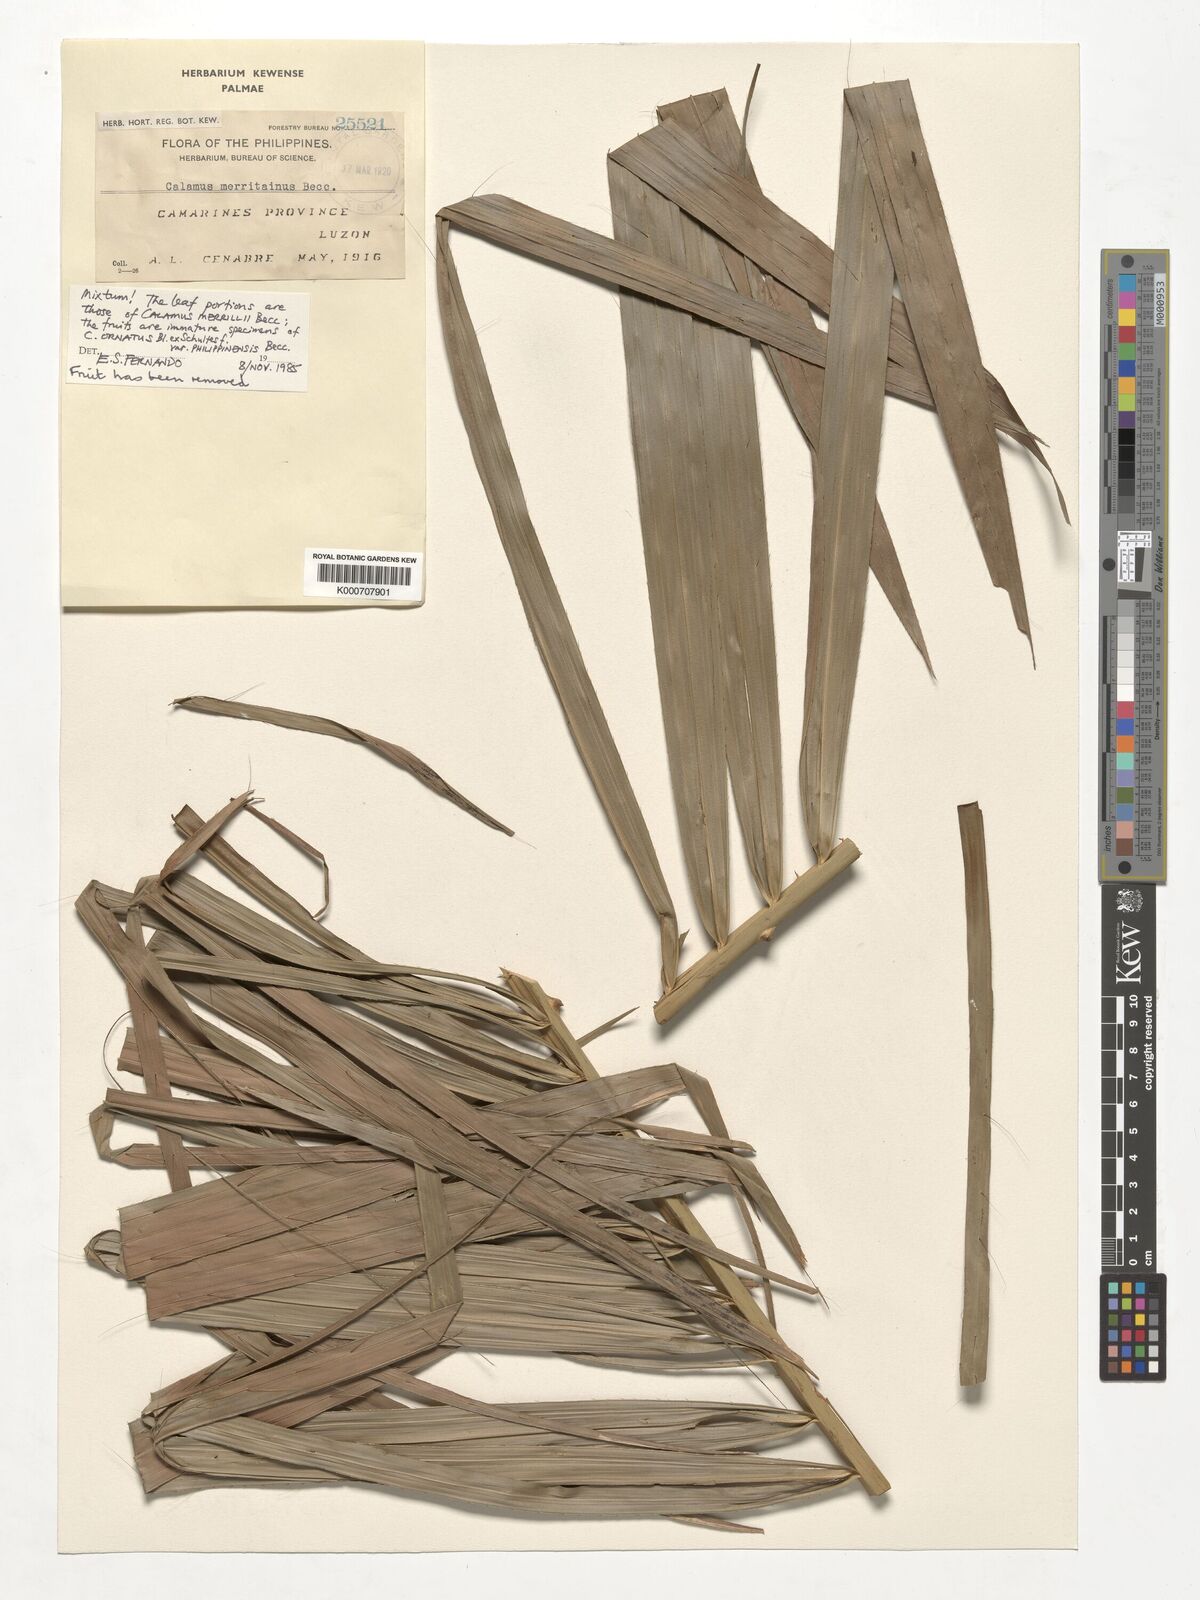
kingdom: Plantae
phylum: Tracheophyta
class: Liliopsida
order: Arecales
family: Arecaceae
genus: Calamus
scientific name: Calamus zollingeri
